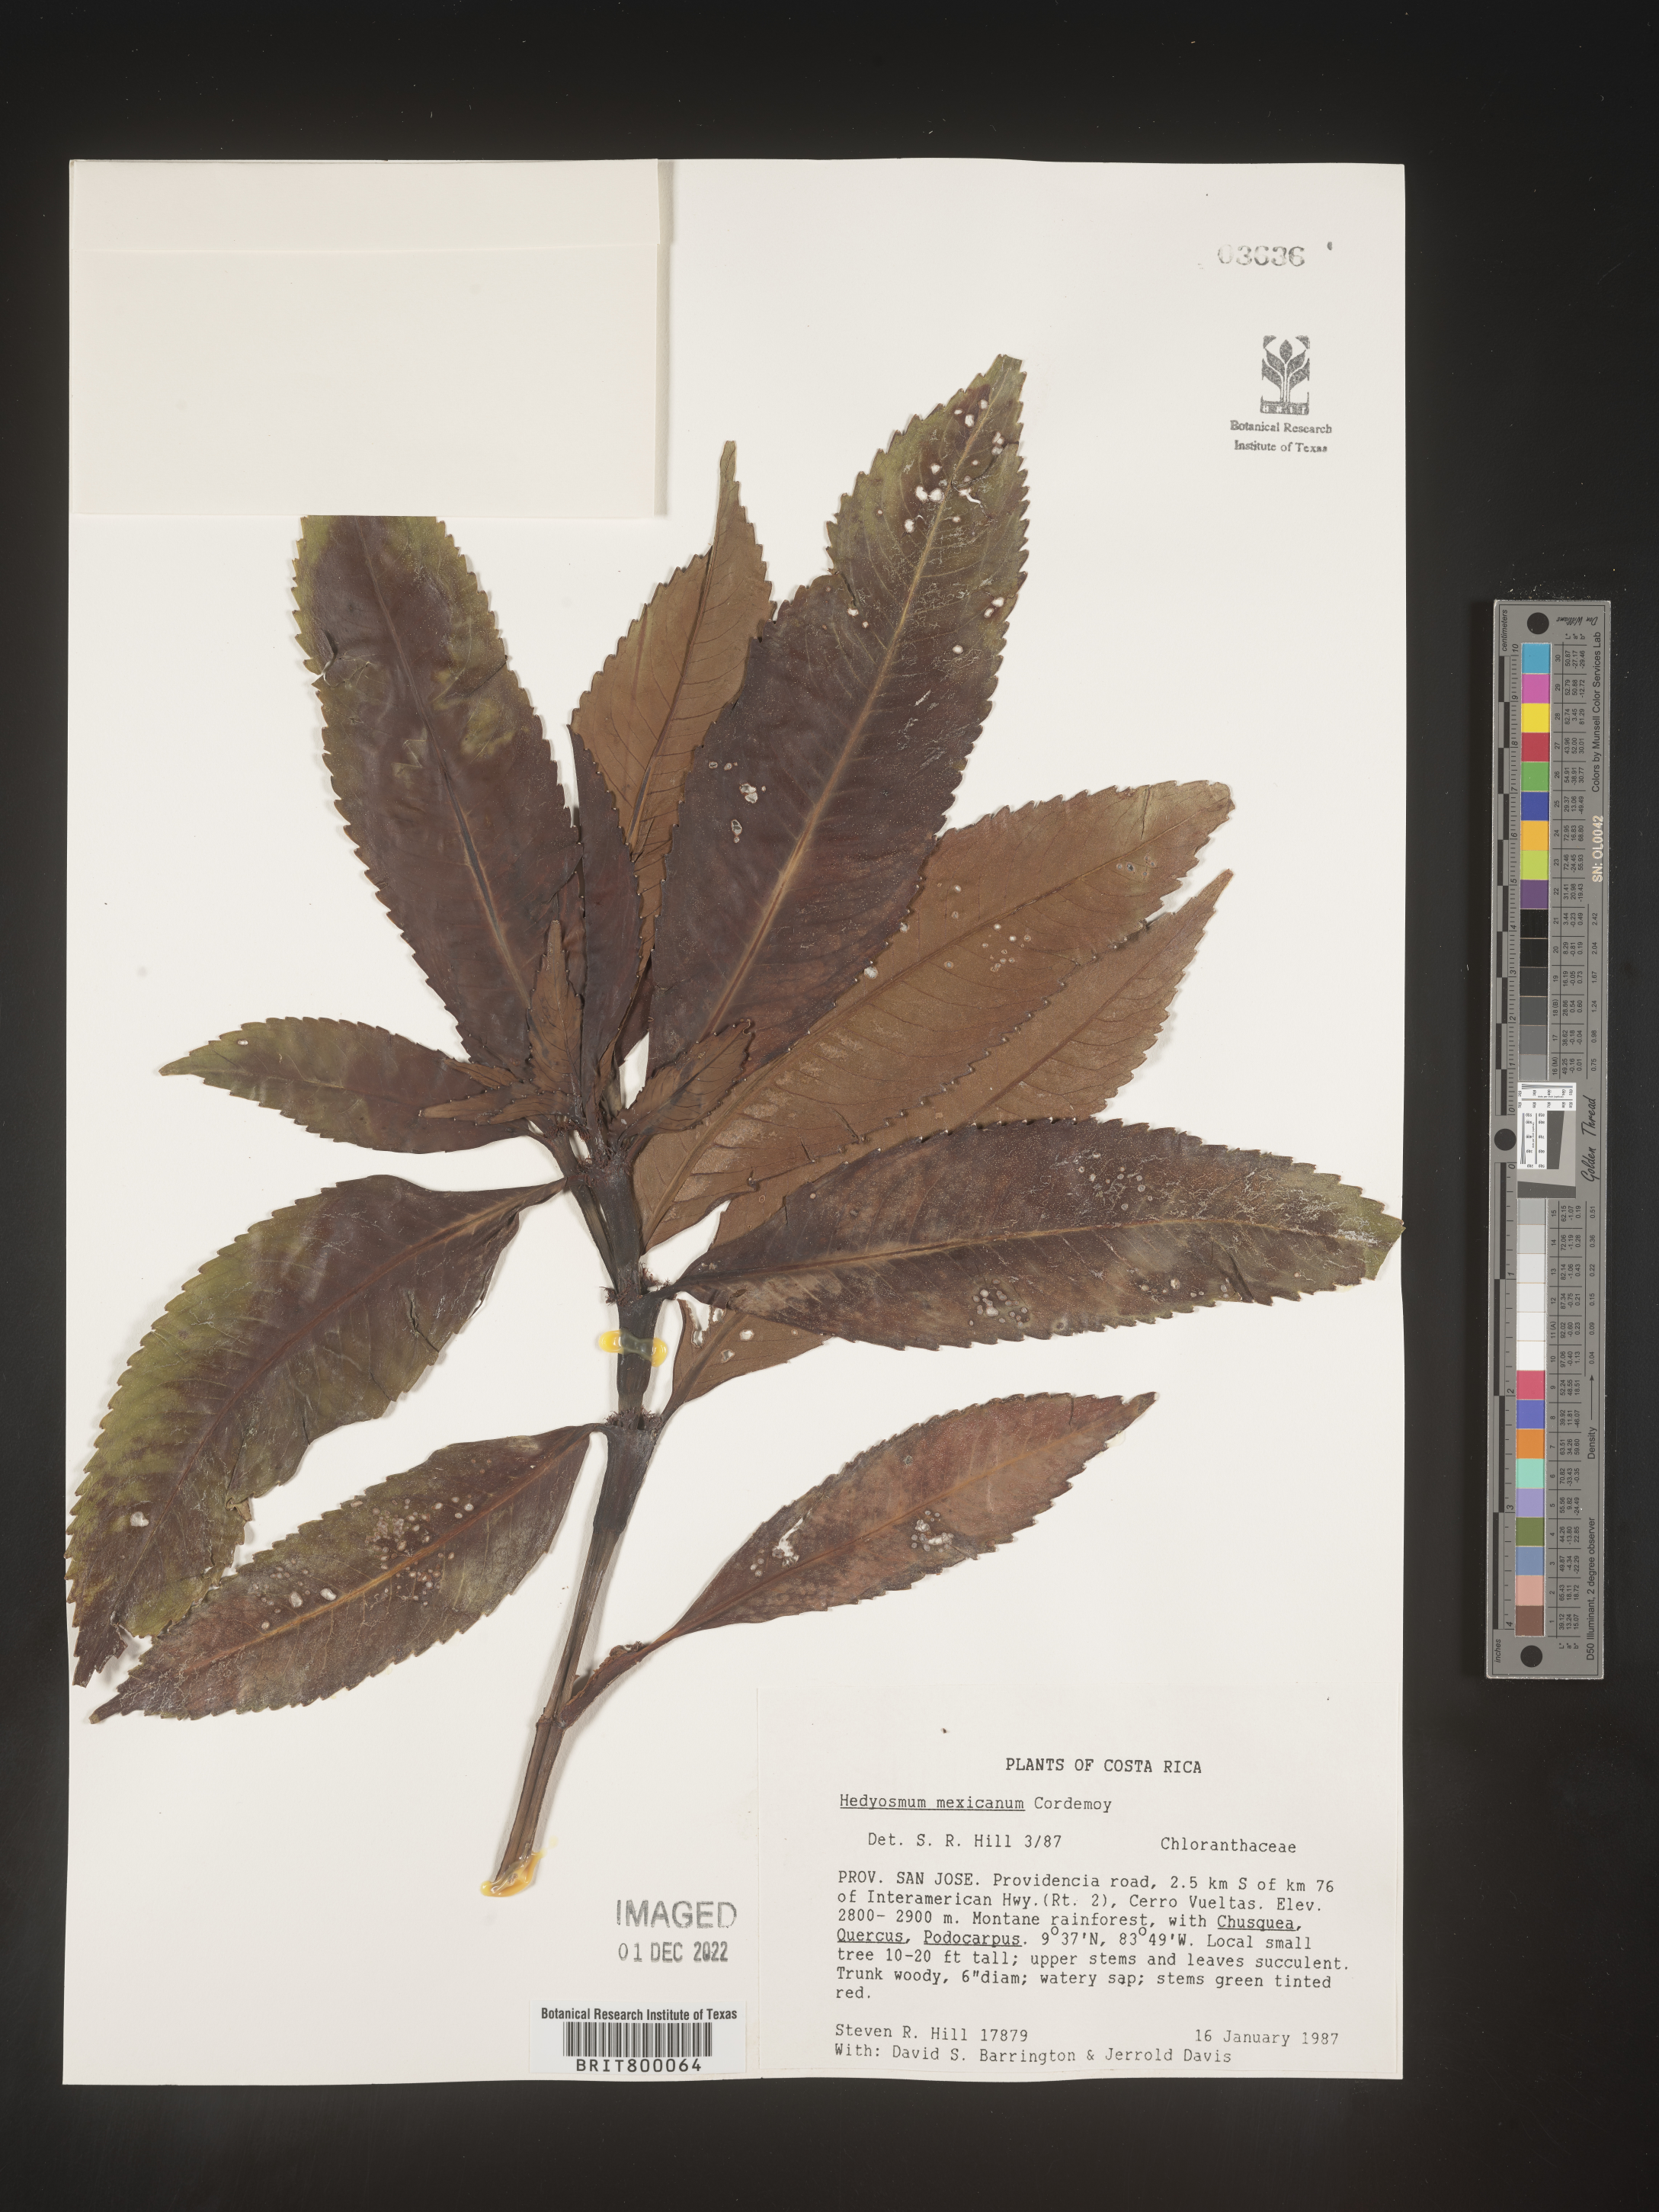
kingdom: Plantae
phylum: Tracheophyta
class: Magnoliopsida
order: Chloranthales
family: Chloranthaceae
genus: Hedyosmum
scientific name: Hedyosmum
